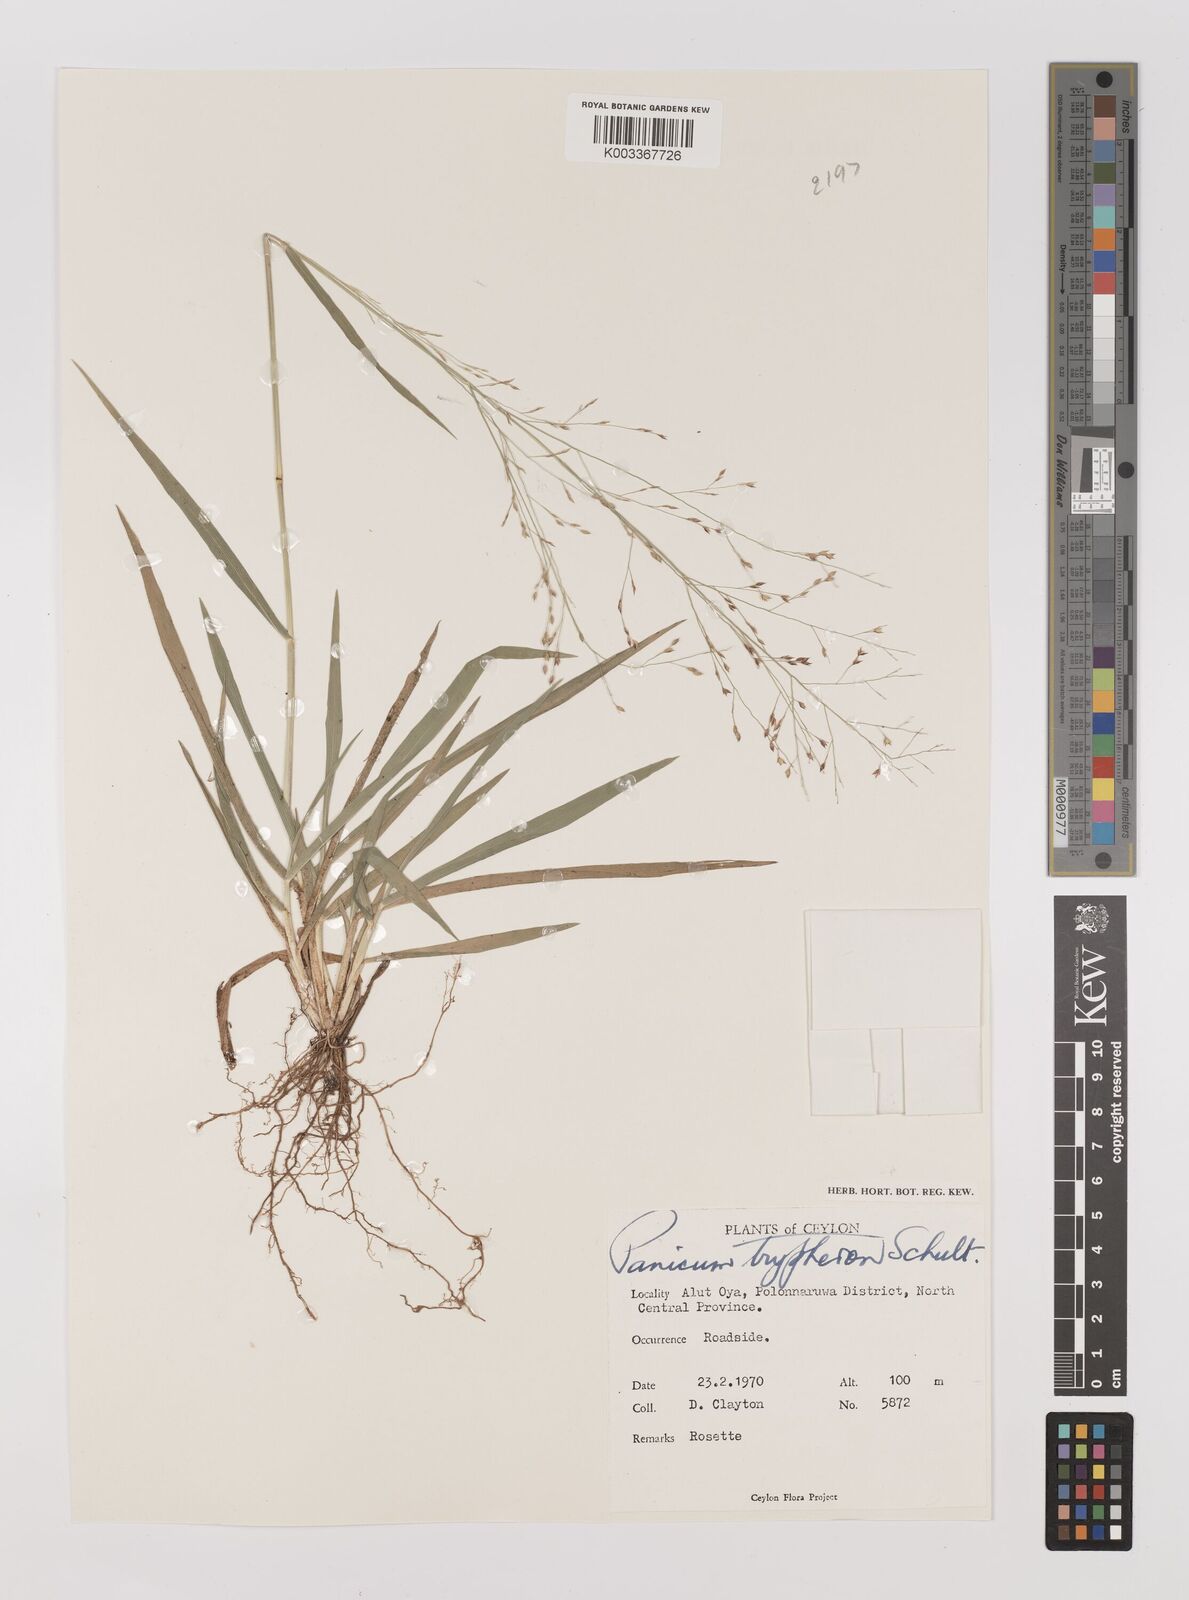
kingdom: Plantae
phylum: Tracheophyta
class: Liliopsida
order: Poales
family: Poaceae
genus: Panicum
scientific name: Panicum curviflorum
